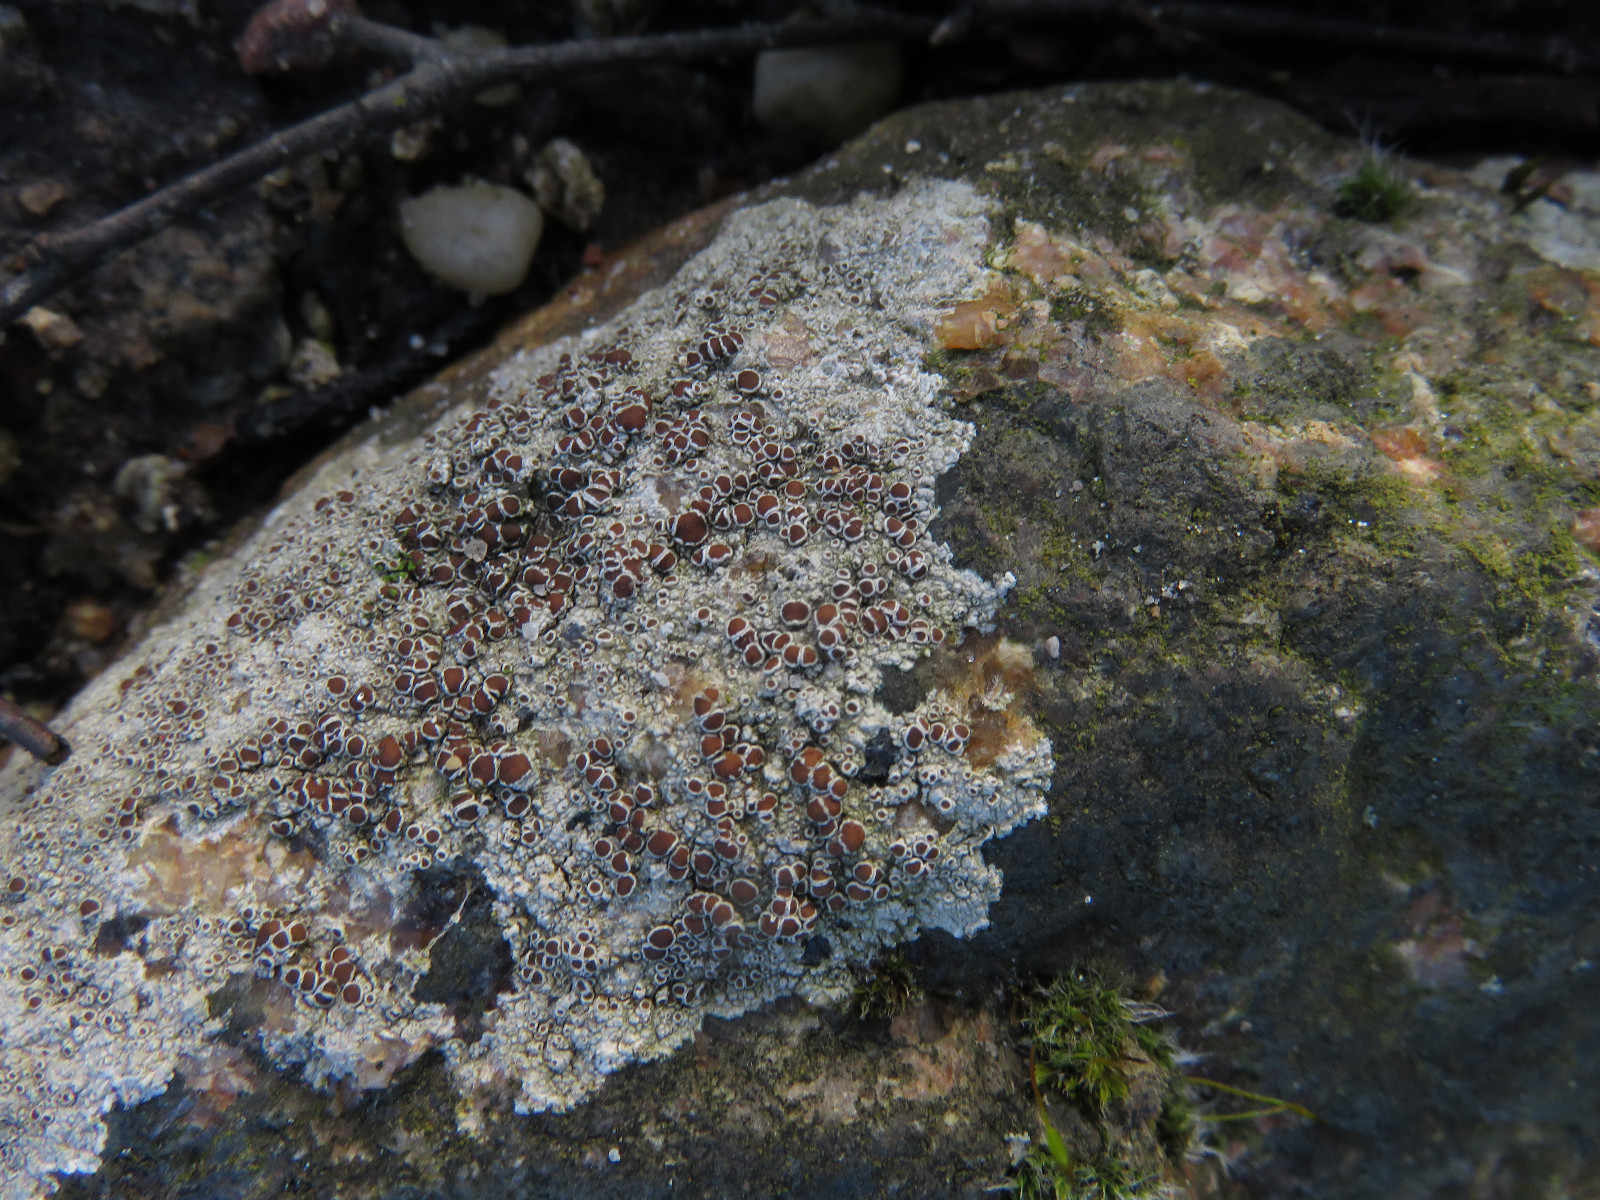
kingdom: Fungi
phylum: Ascomycota
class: Lecanoromycetes
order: Lecanorales
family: Lecanoraceae
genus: Lecanora
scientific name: Lecanora campestris
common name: mur-kantskivelav
